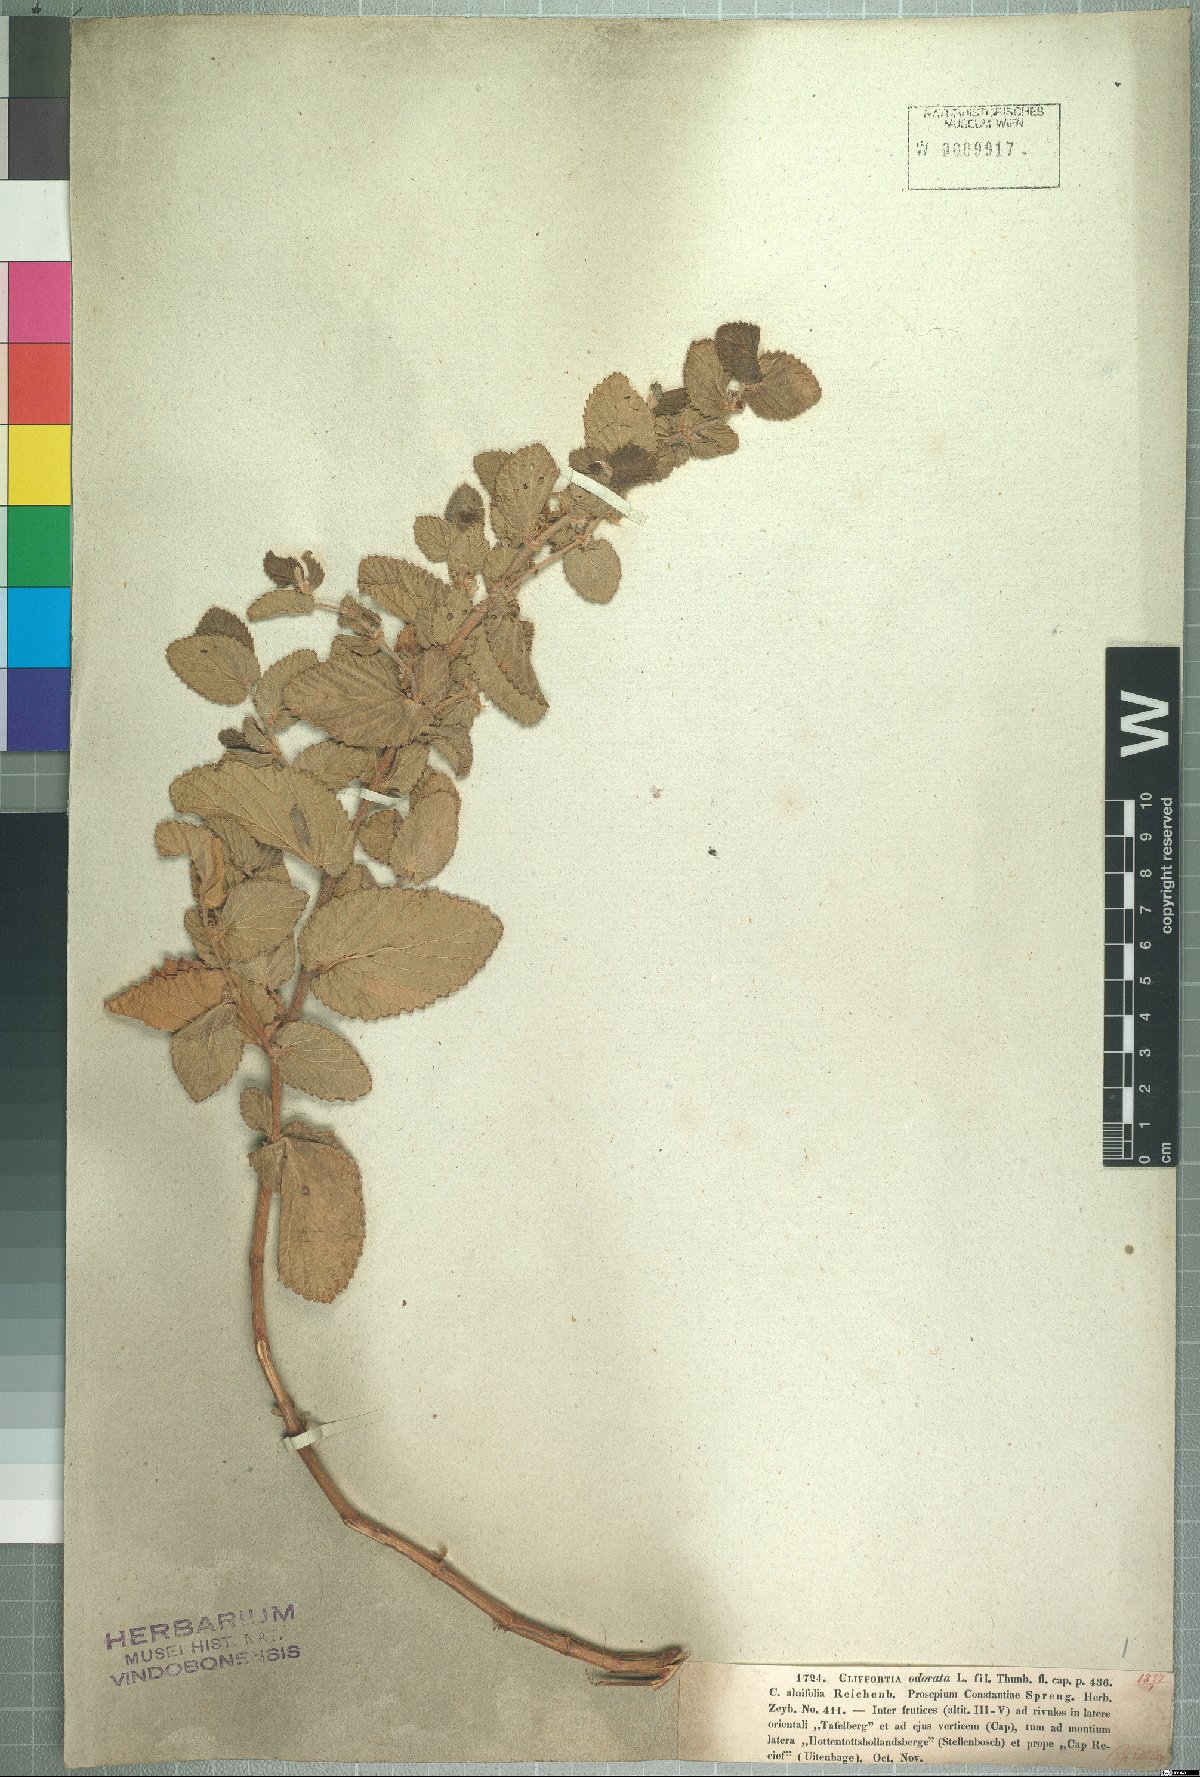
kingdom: Plantae
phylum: Tracheophyta
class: Magnoliopsida
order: Rosales
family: Rosaceae
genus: Cliffortia
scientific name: Cliffortia odorata
